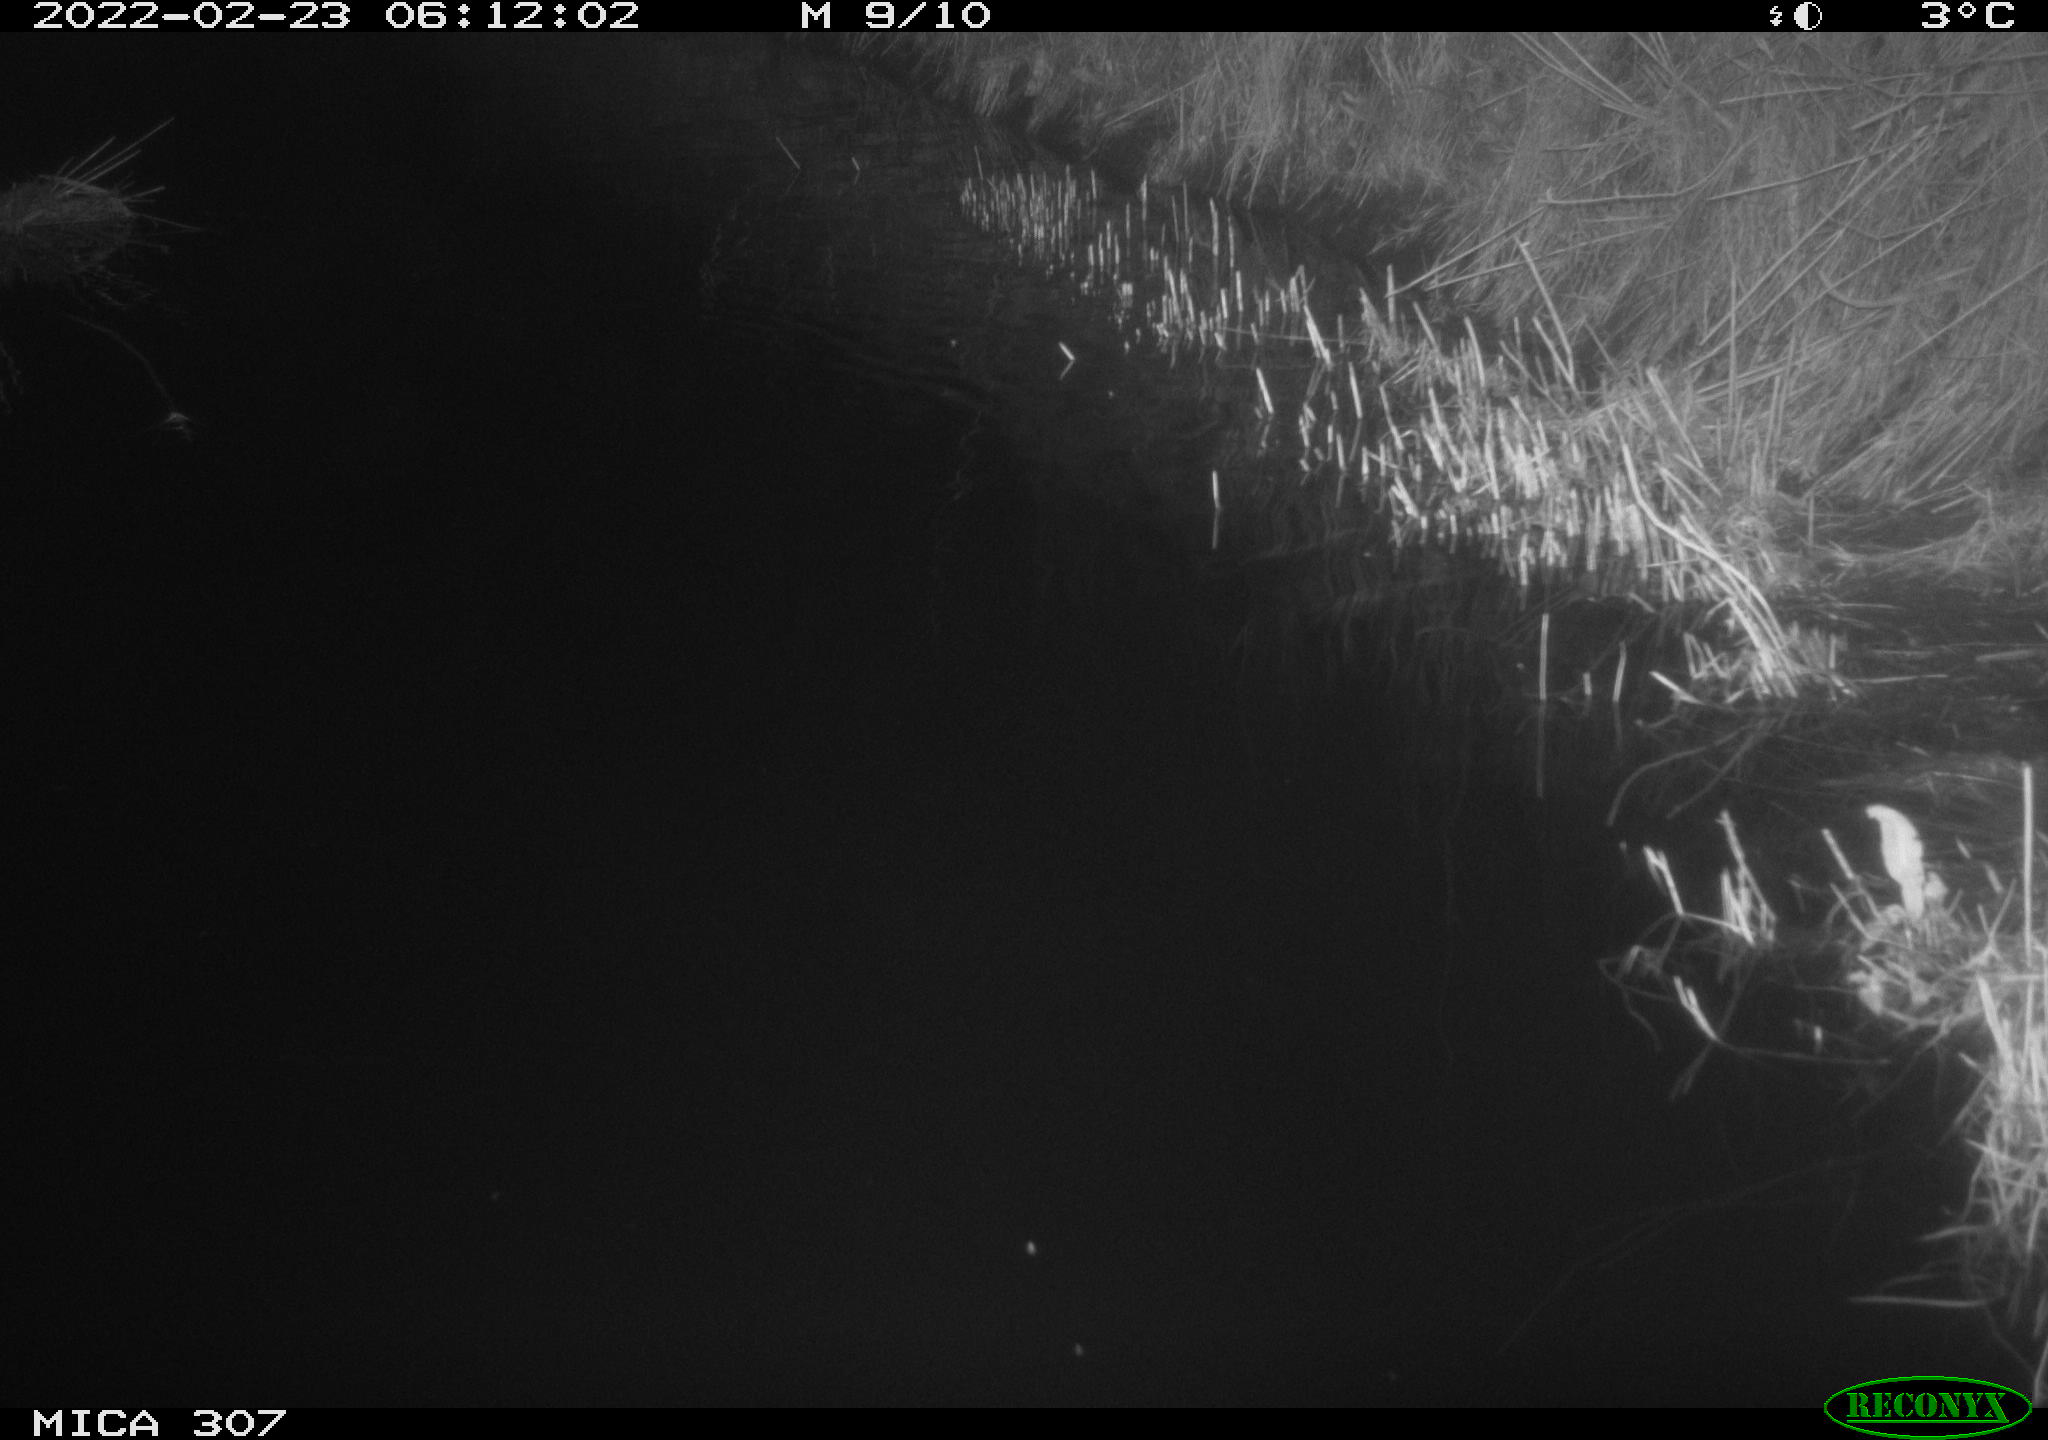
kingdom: Animalia
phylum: Chordata
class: Aves
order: Anseriformes
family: Anatidae
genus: Anas
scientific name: Anas platyrhynchos
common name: Mallard
